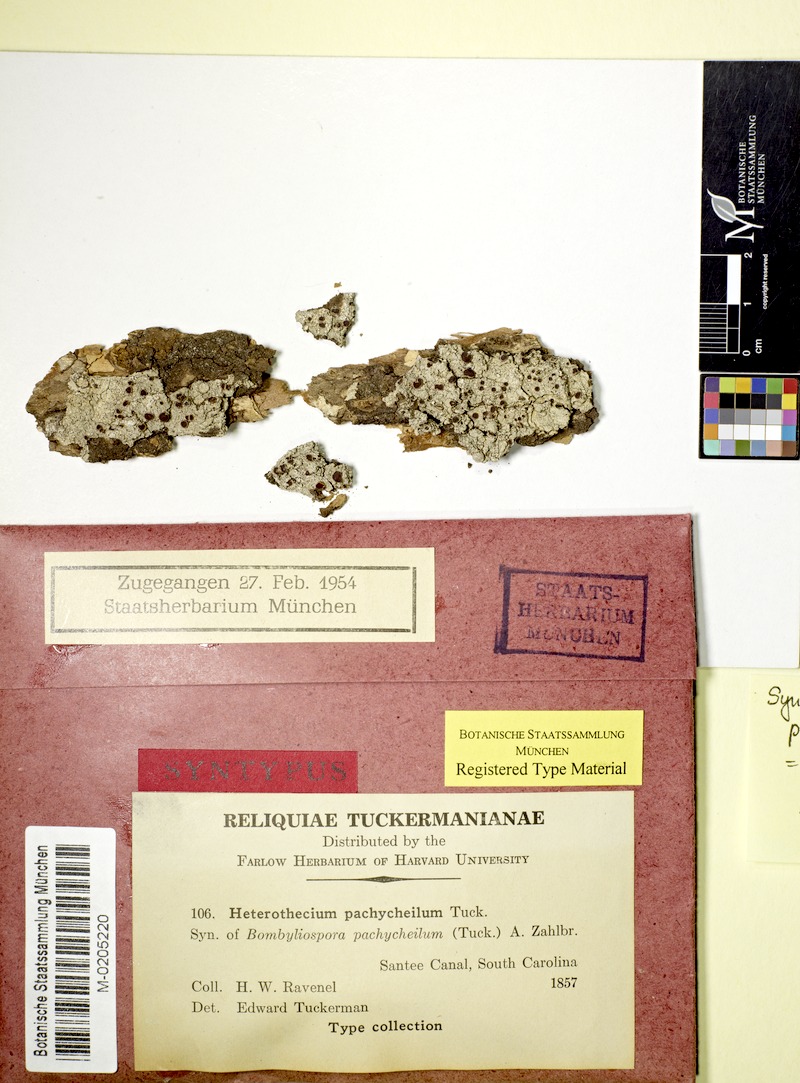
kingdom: Fungi
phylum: Ascomycota
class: Lecanoromycetes
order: Teloschistales
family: Megalosporaceae
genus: Megalospora
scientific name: Megalospora pachycheila
